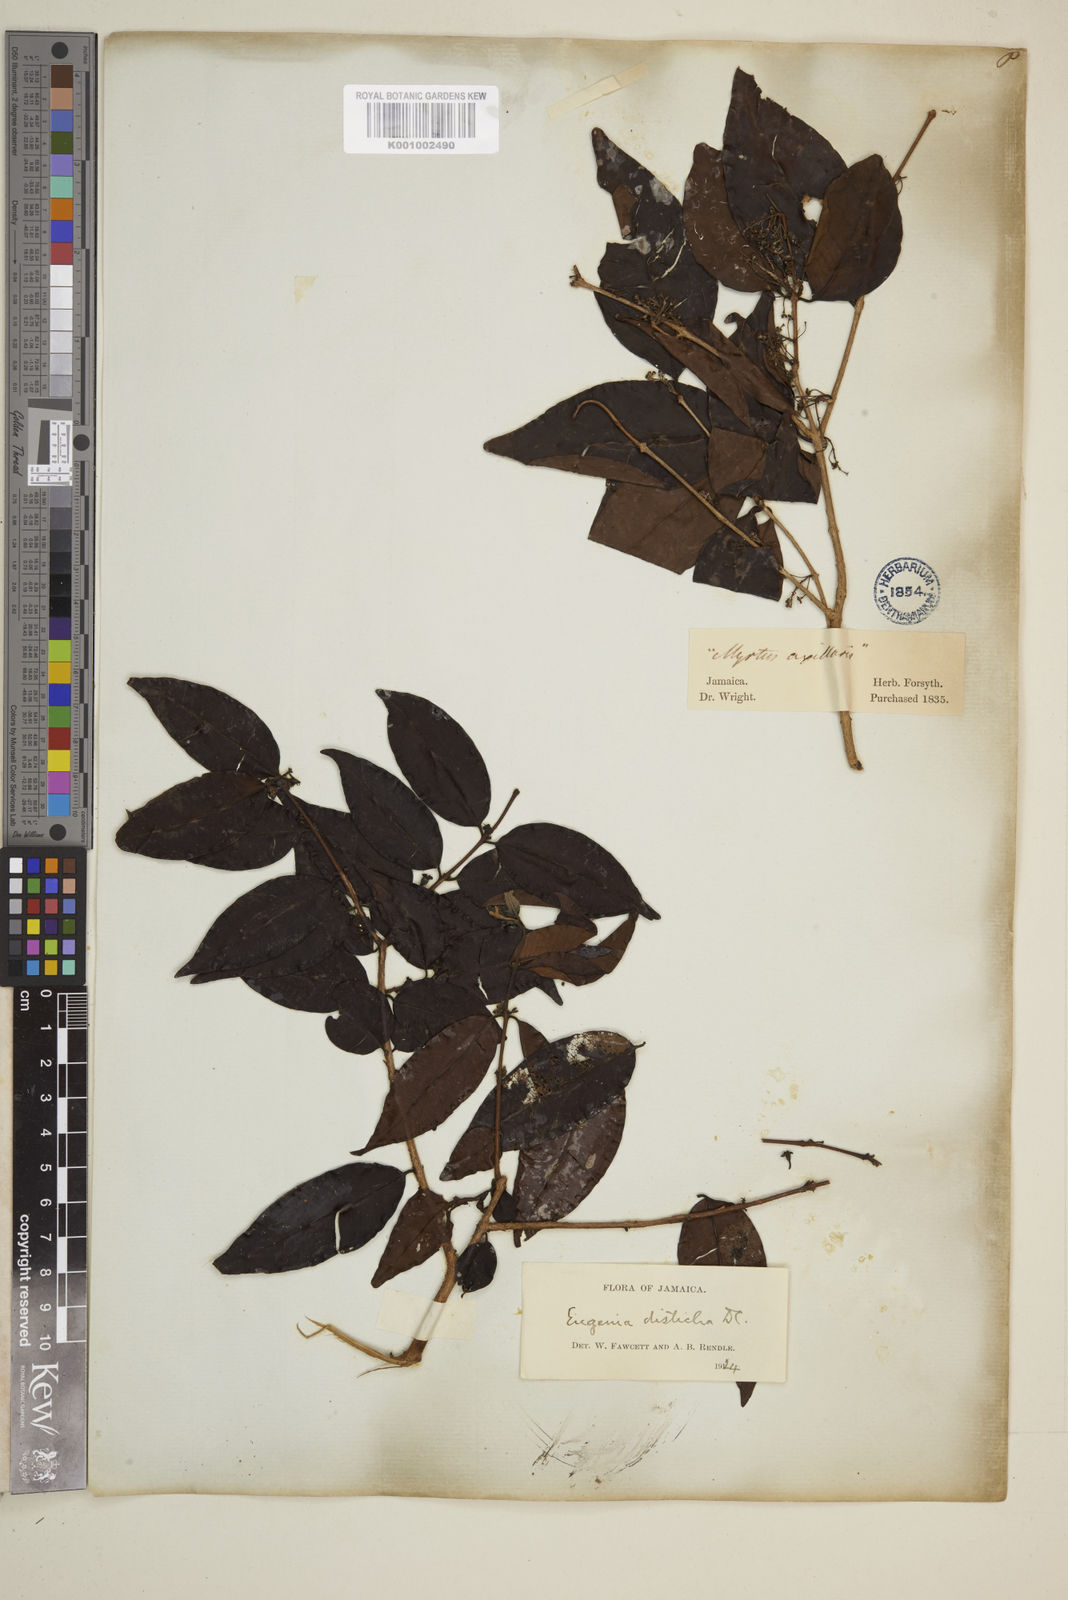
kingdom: Plantae
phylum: Tracheophyta
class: Magnoliopsida
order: Myrtales
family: Myrtaceae
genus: Eugenia
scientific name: Eugenia disticha
